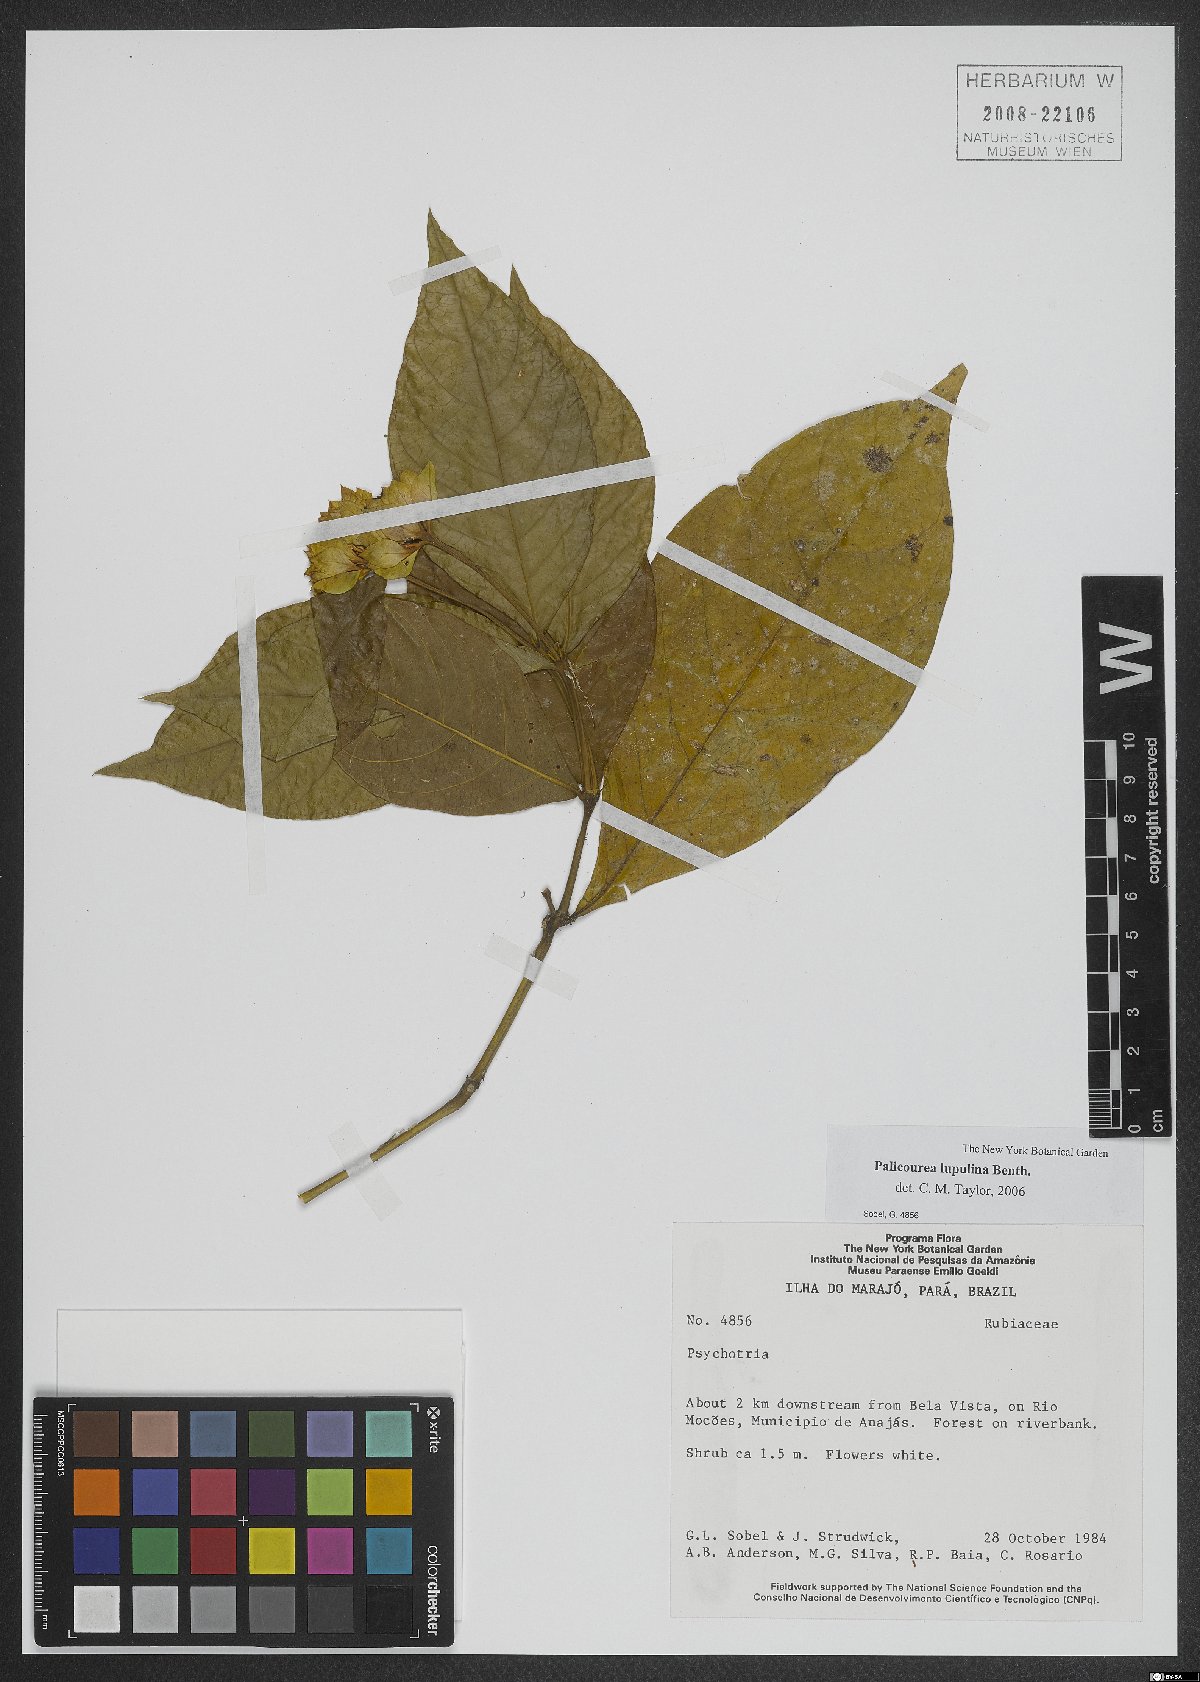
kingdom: Plantae
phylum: Tracheophyta
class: Magnoliopsida
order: Gentianales
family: Rubiaceae
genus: Palicourea
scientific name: Palicourea justiciifolia
